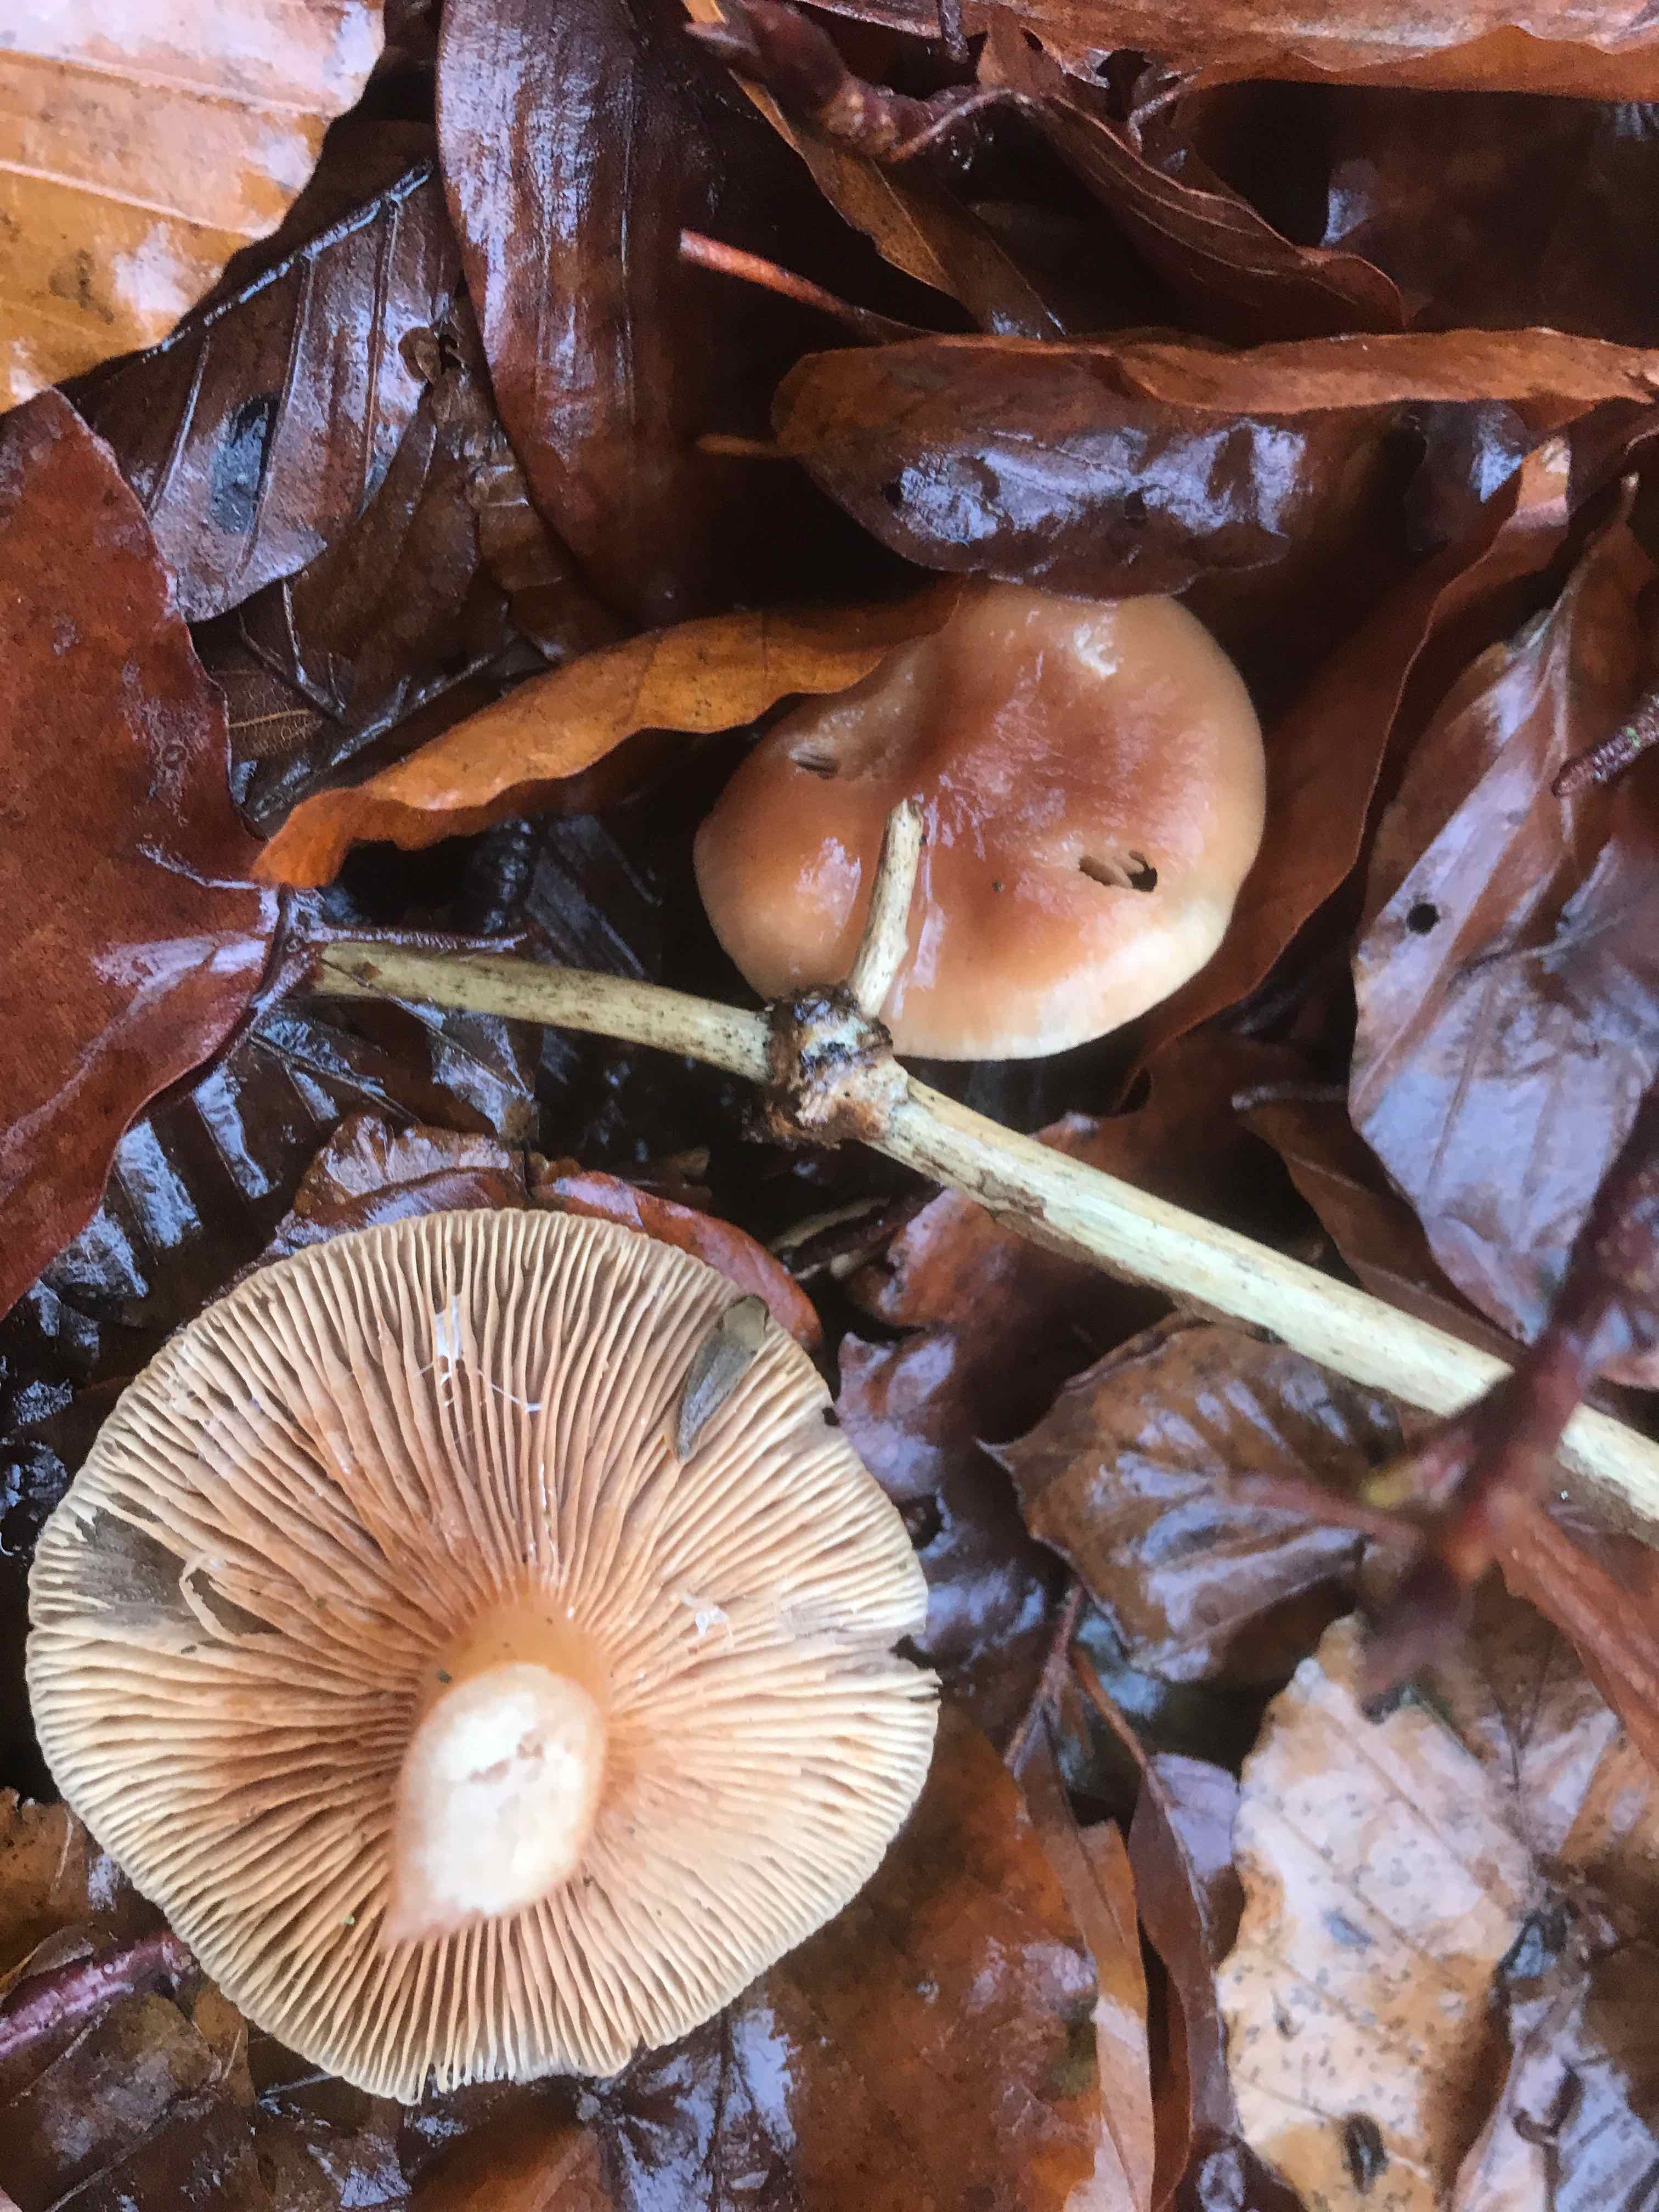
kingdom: Fungi
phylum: Basidiomycota
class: Agaricomycetes
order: Russulales
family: Russulaceae
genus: Lactarius
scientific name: Lactarius subdulcis
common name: sødlig mælkehat
